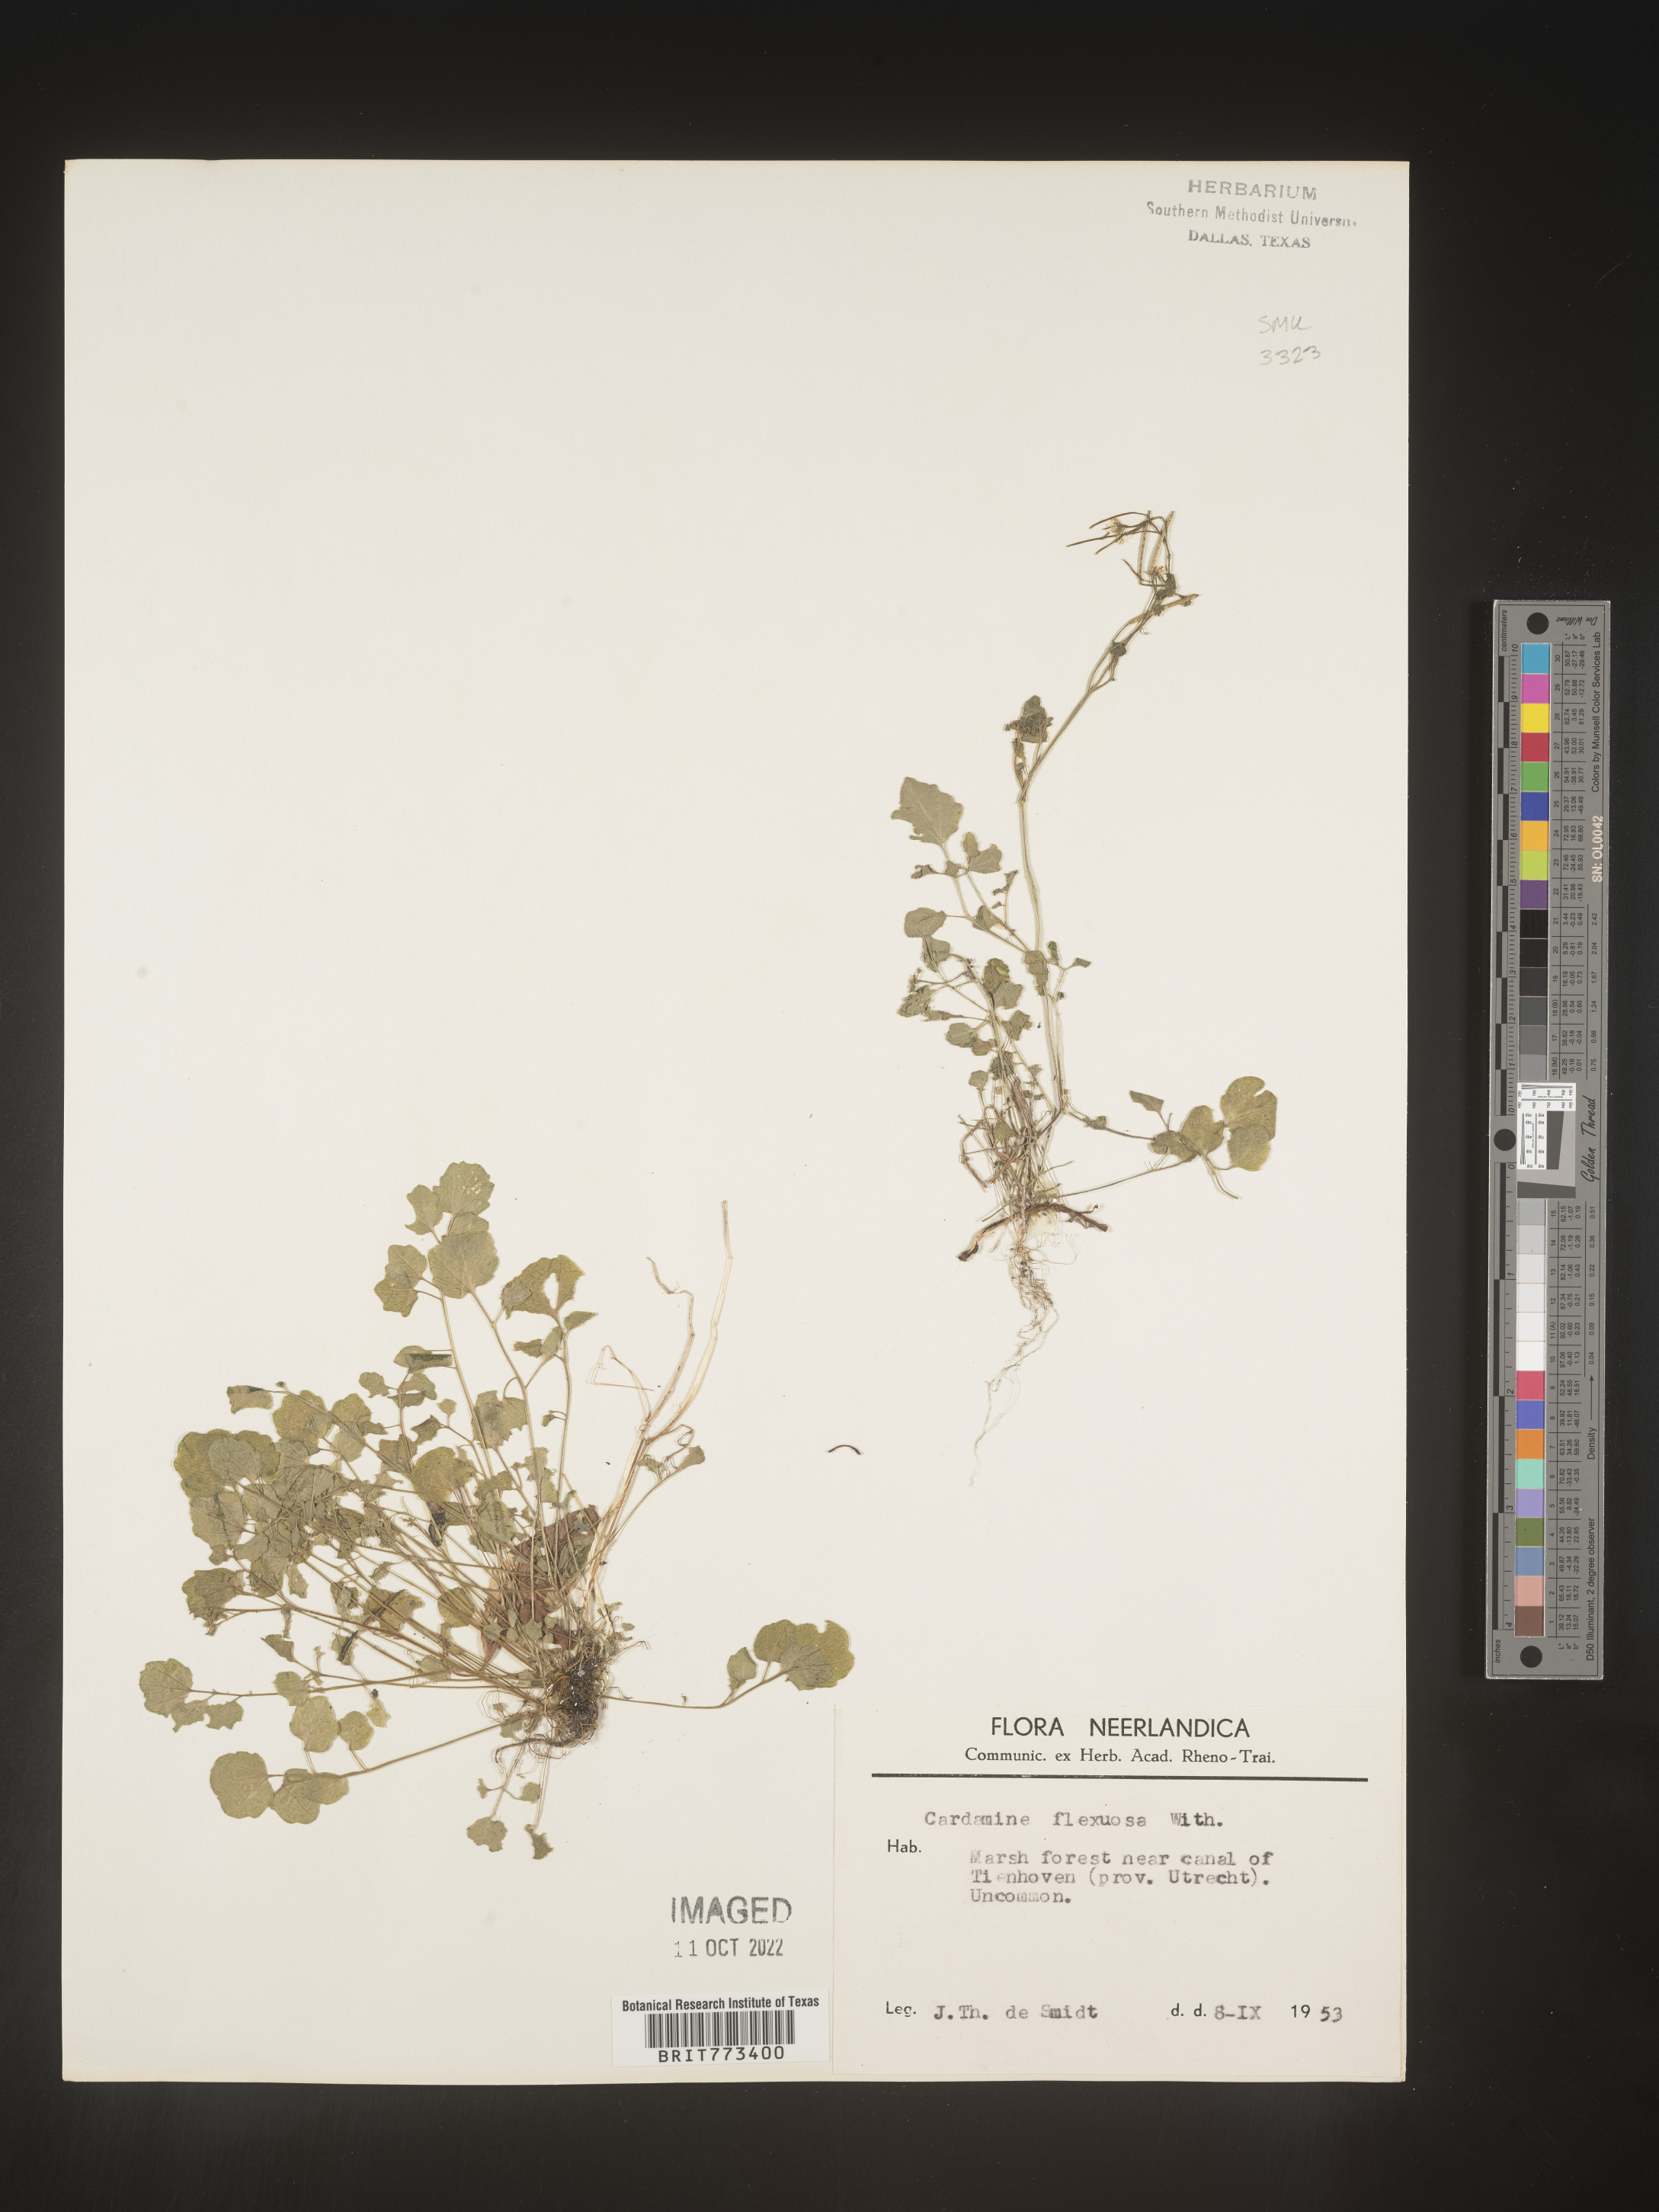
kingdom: Plantae
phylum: Tracheophyta
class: Magnoliopsida
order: Brassicales
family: Brassicaceae
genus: Cardamine
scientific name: Cardamine
